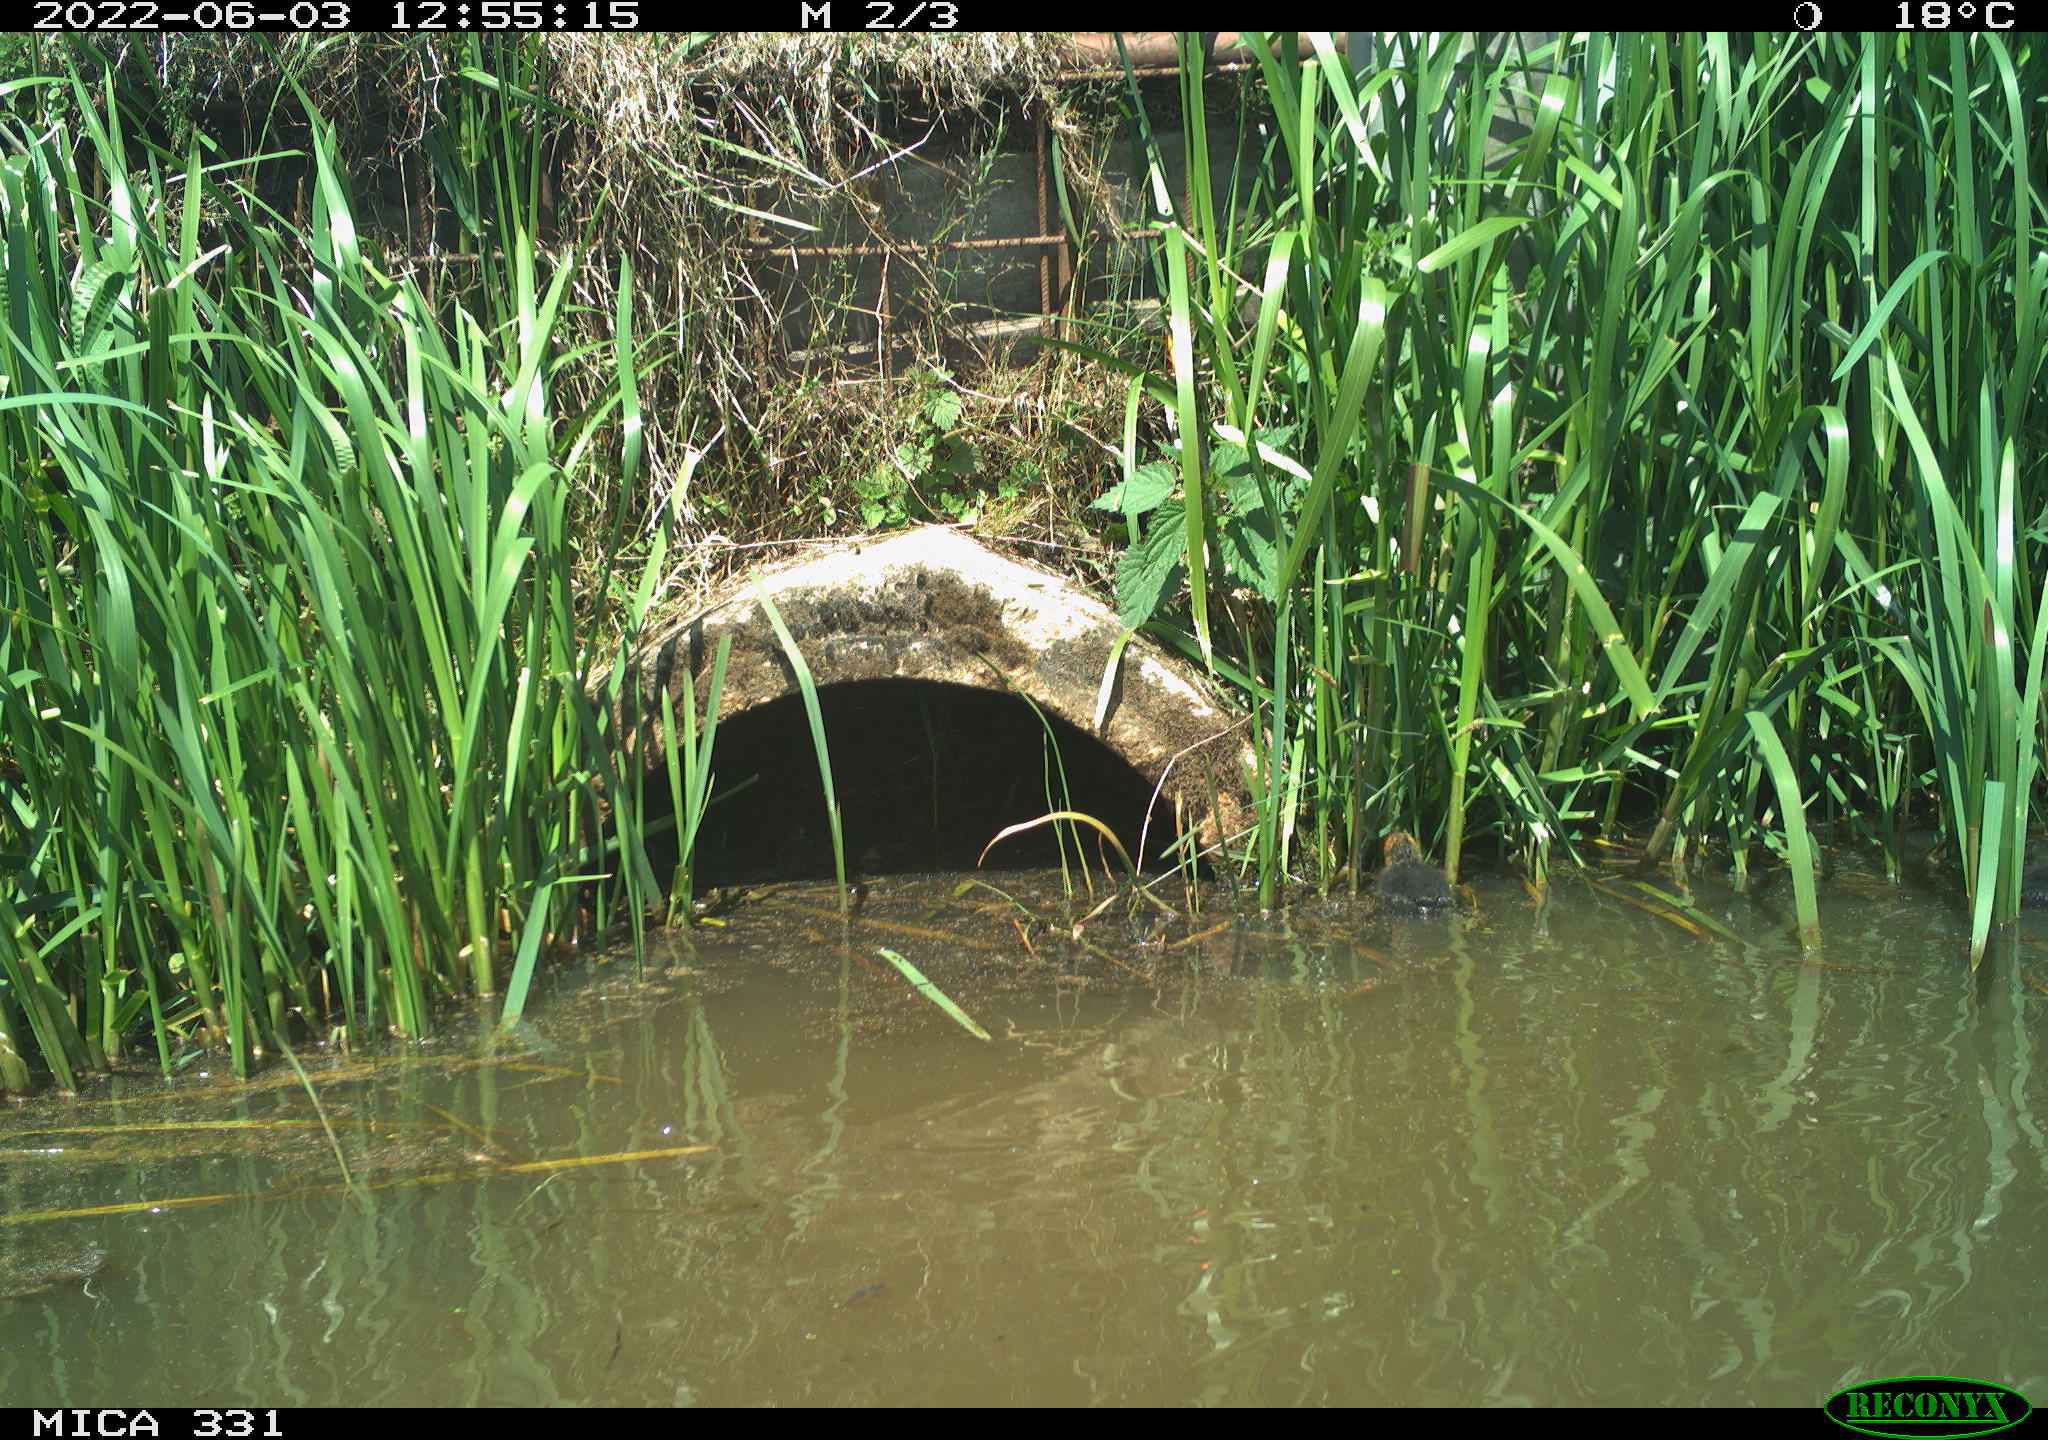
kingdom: Animalia
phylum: Chordata
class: Aves
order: Gruiformes
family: Rallidae
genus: Fulica
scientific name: Fulica atra
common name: Eurasian coot
